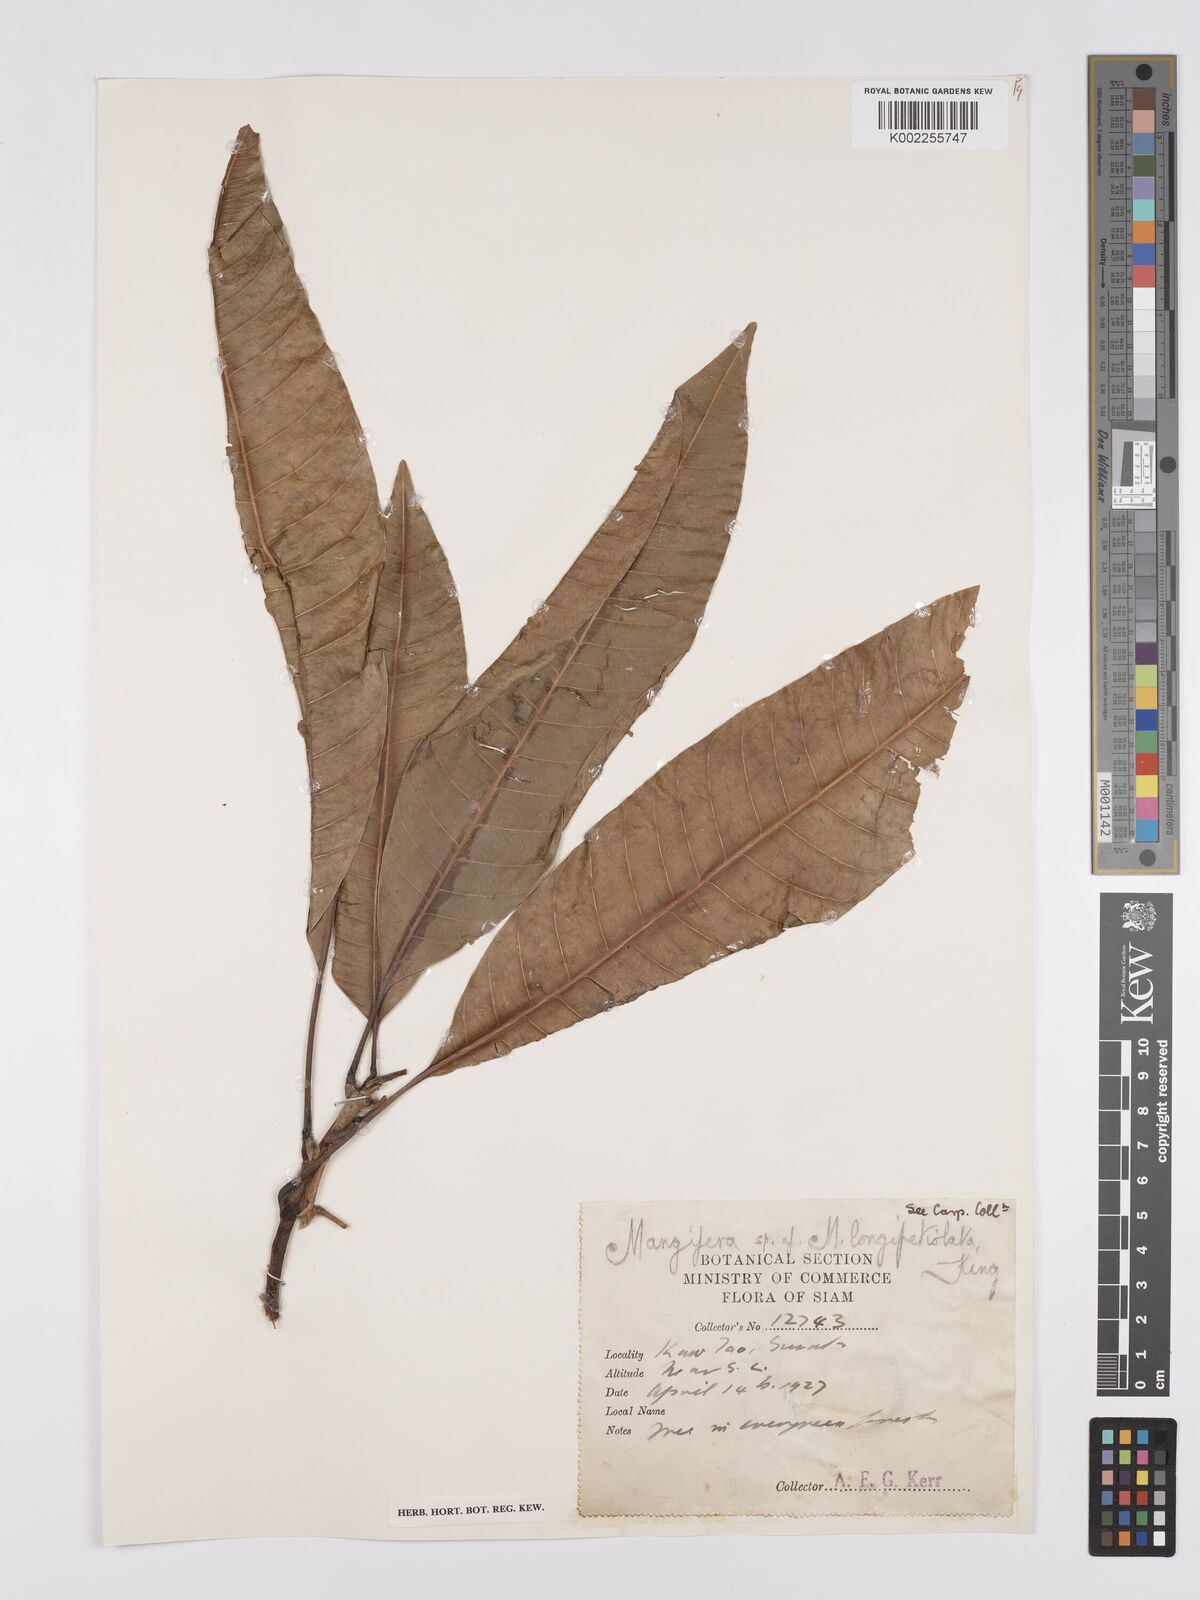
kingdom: Plantae
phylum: Tracheophyta
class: Magnoliopsida
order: Sapindales
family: Anacardiaceae
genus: Mangifera
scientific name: Mangifera quadrifida
